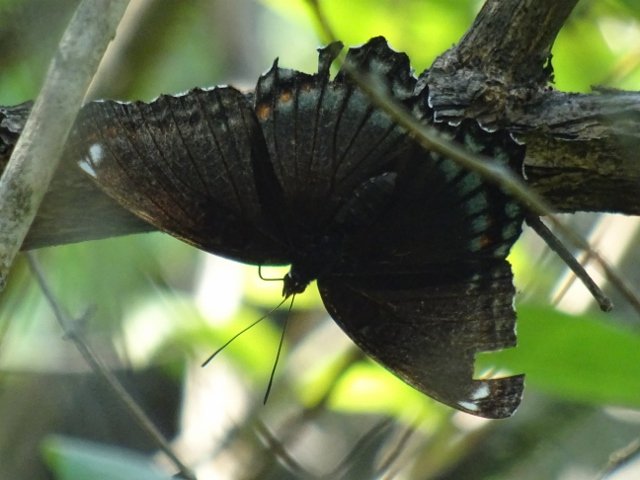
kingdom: Animalia
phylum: Arthropoda
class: Insecta
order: Lepidoptera
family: Nymphalidae
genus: Limenitis
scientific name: Limenitis astyanax
